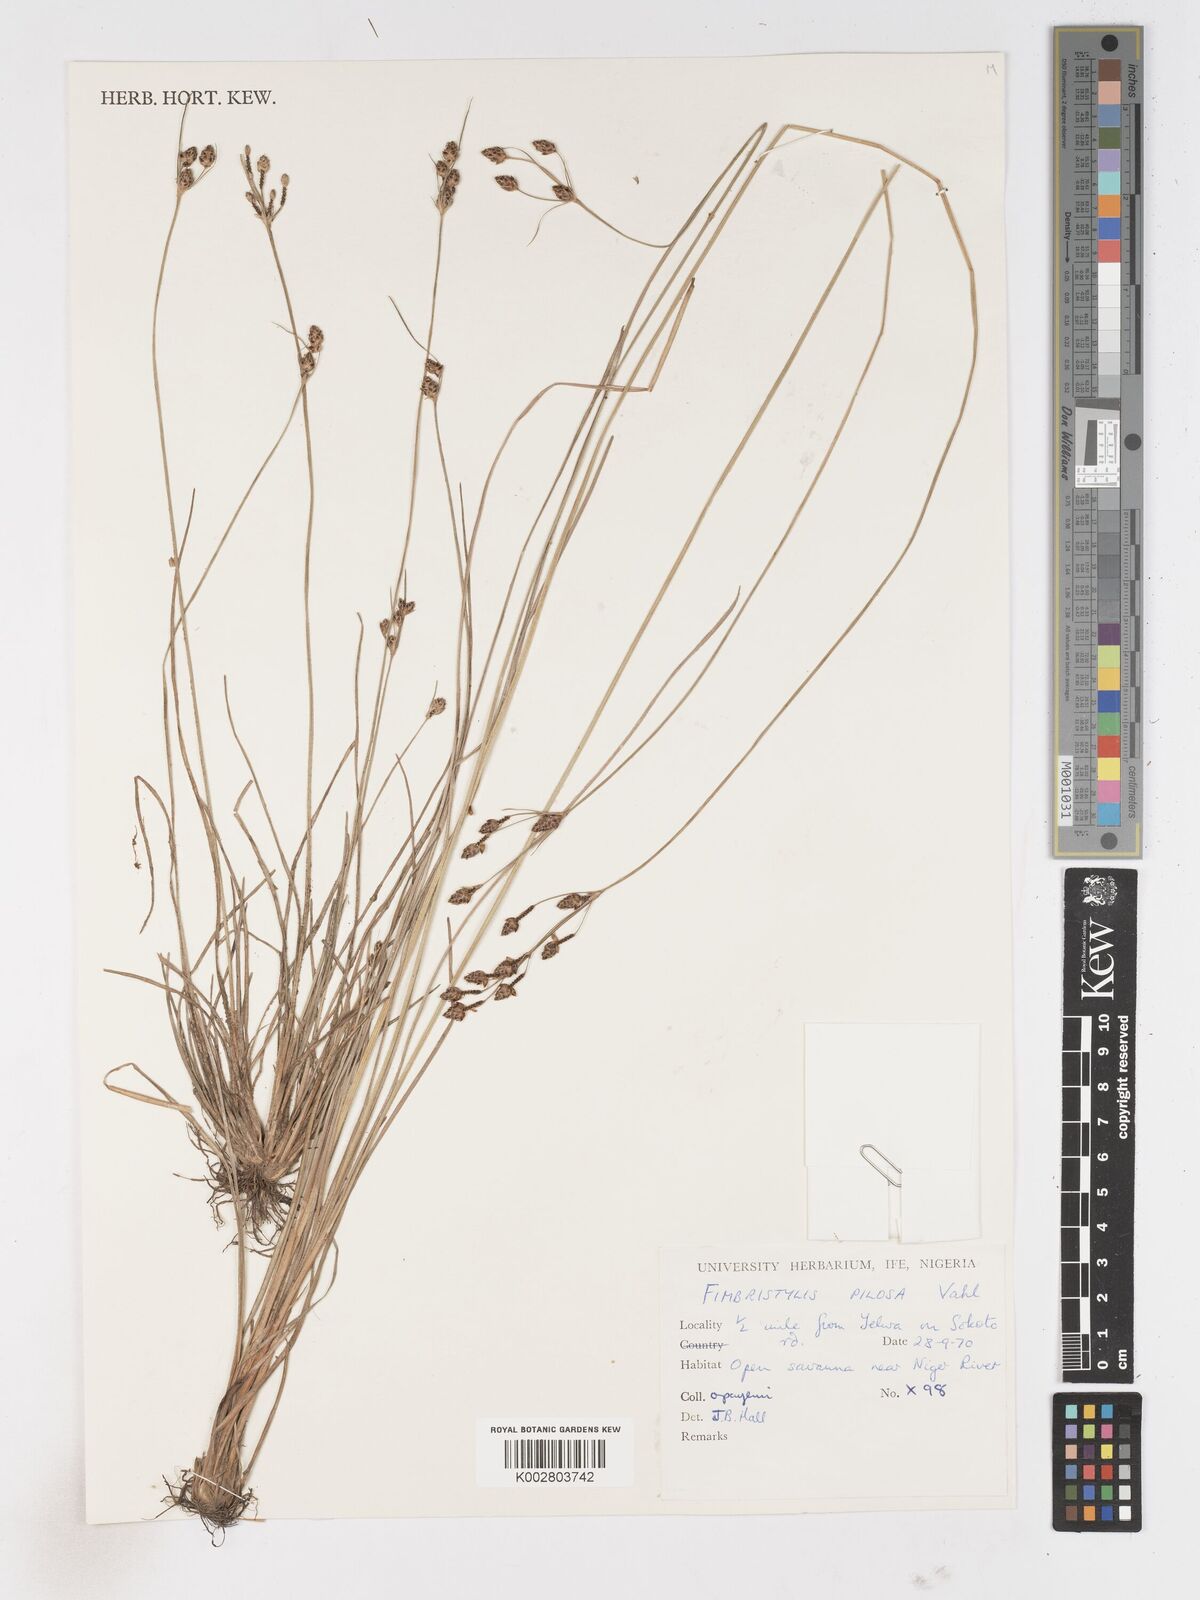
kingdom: Plantae
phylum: Tracheophyta
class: Liliopsida
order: Poales
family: Cyperaceae
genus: Fimbristylis
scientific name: Fimbristylis pilosa
